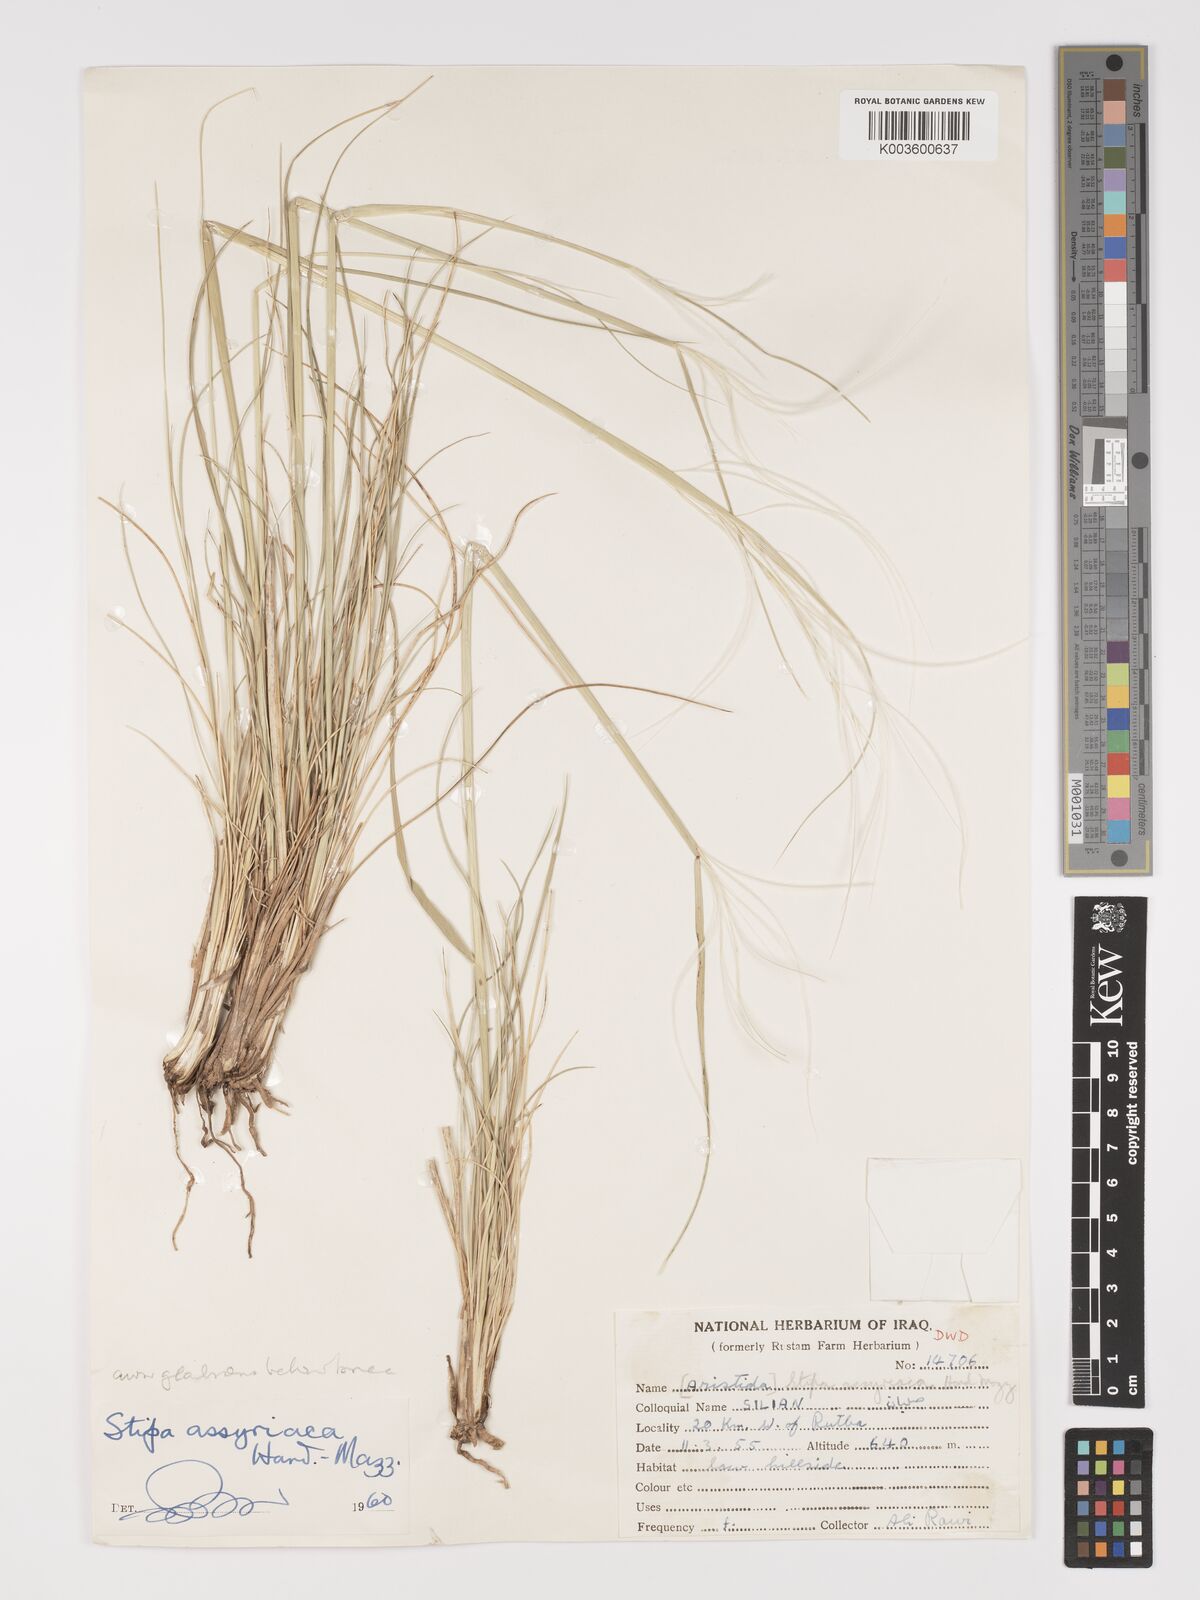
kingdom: Plantae
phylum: Tracheophyta
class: Liliopsida
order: Poales
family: Poaceae
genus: Stipa
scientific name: Stipa hohenackeriana
